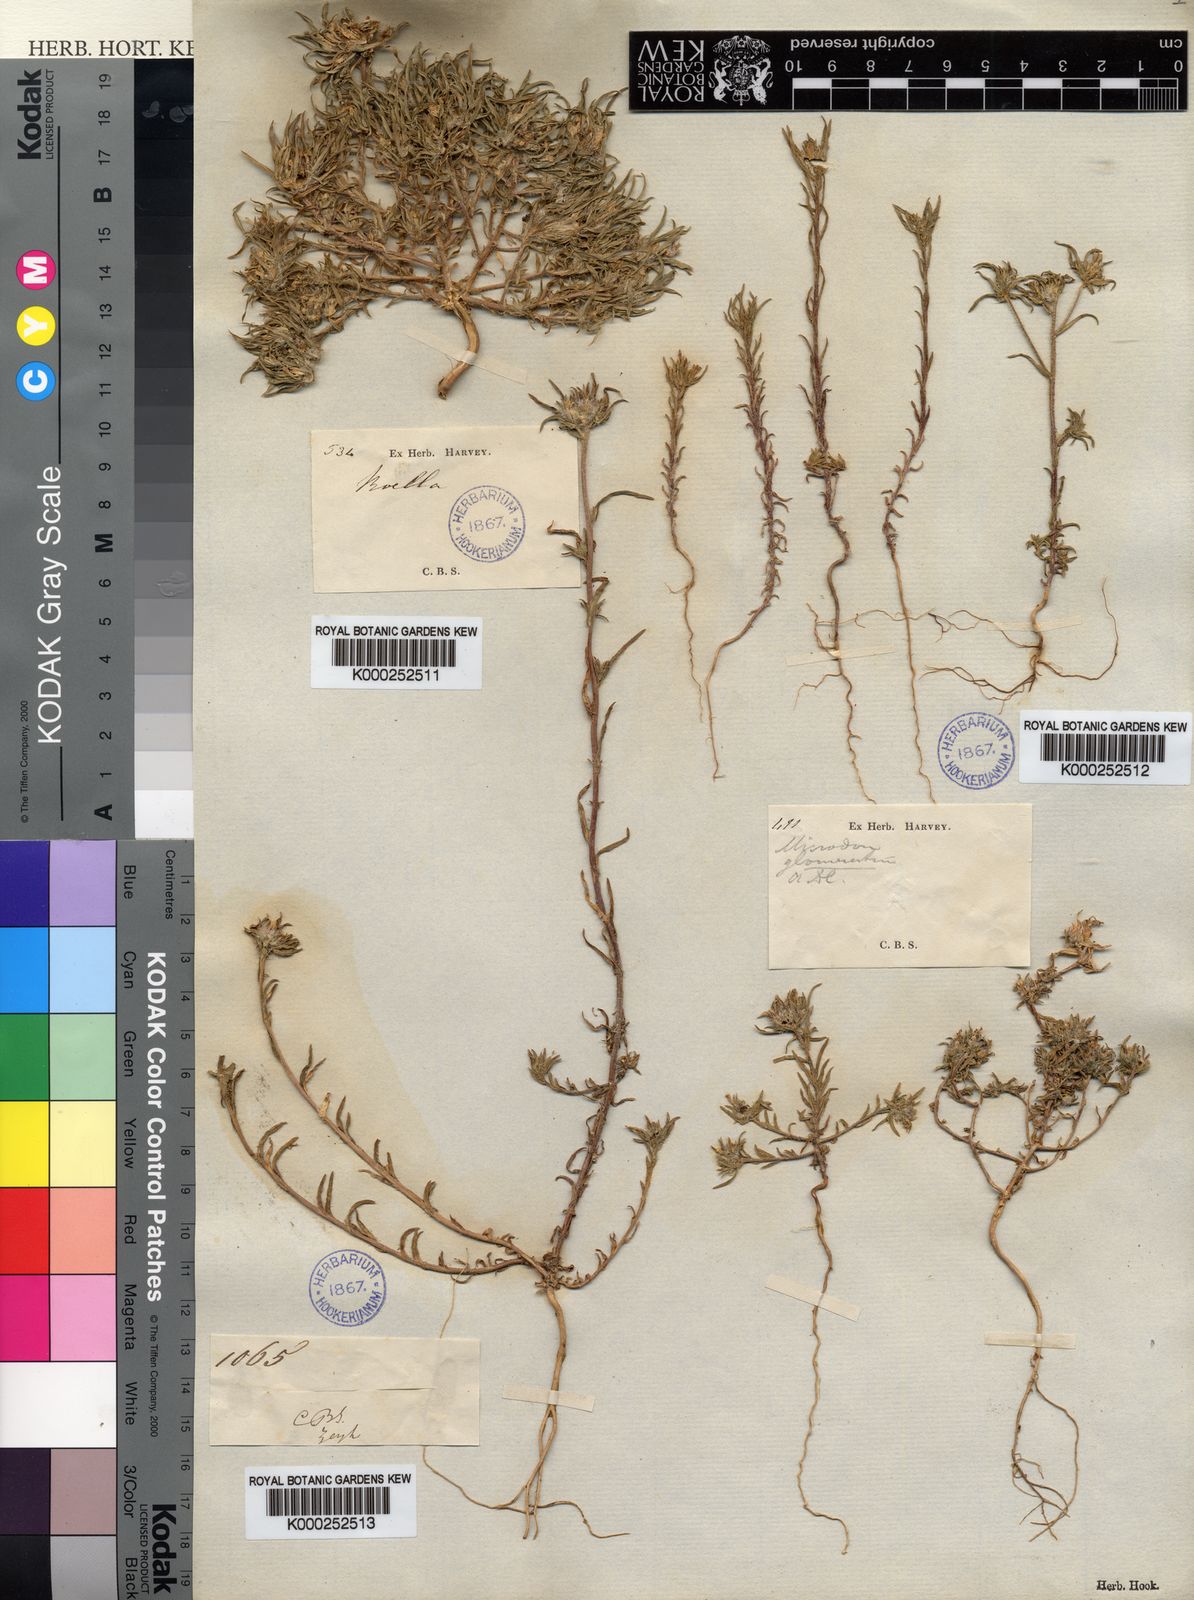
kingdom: Plantae
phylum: Tracheophyta
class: Magnoliopsida
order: Asterales
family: Campanulaceae
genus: Microcodon
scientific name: Microcodon glomeratus
